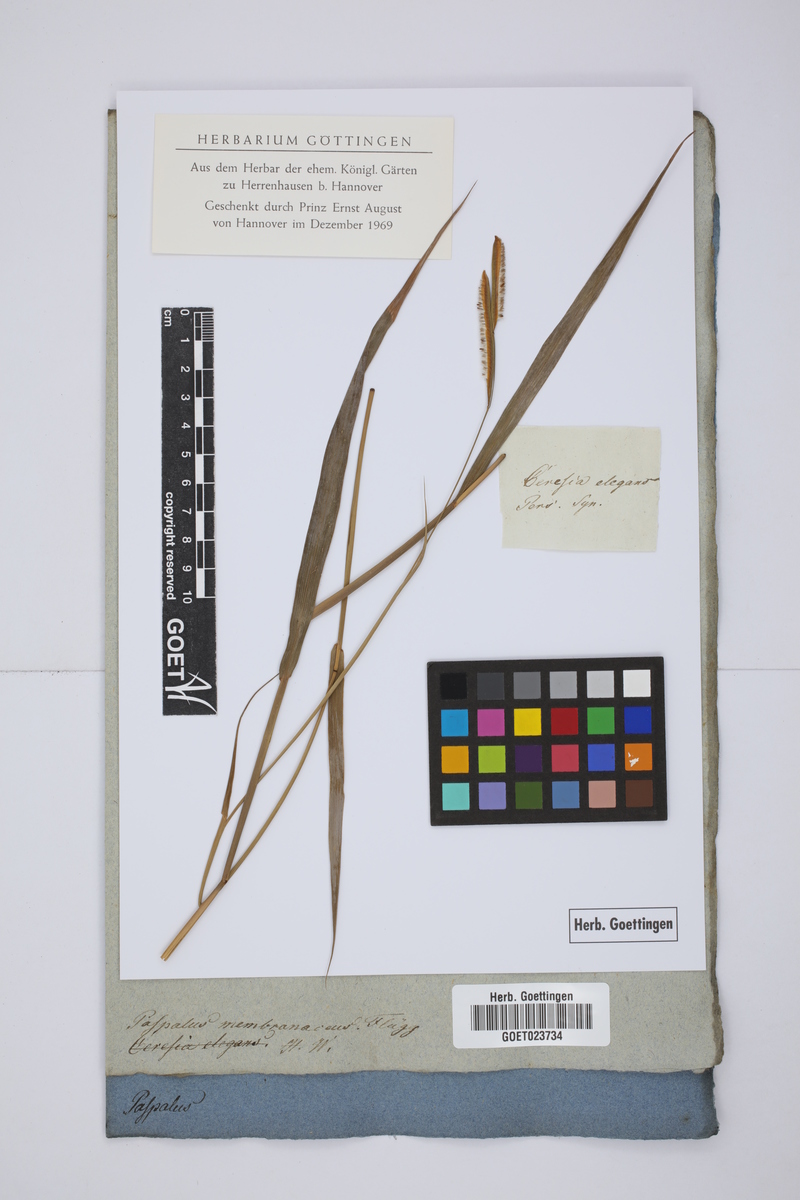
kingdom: Plantae
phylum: Tracheophyta
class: Liliopsida
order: Poales
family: Poaceae
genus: Paspalum
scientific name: Paspalum ceresia
